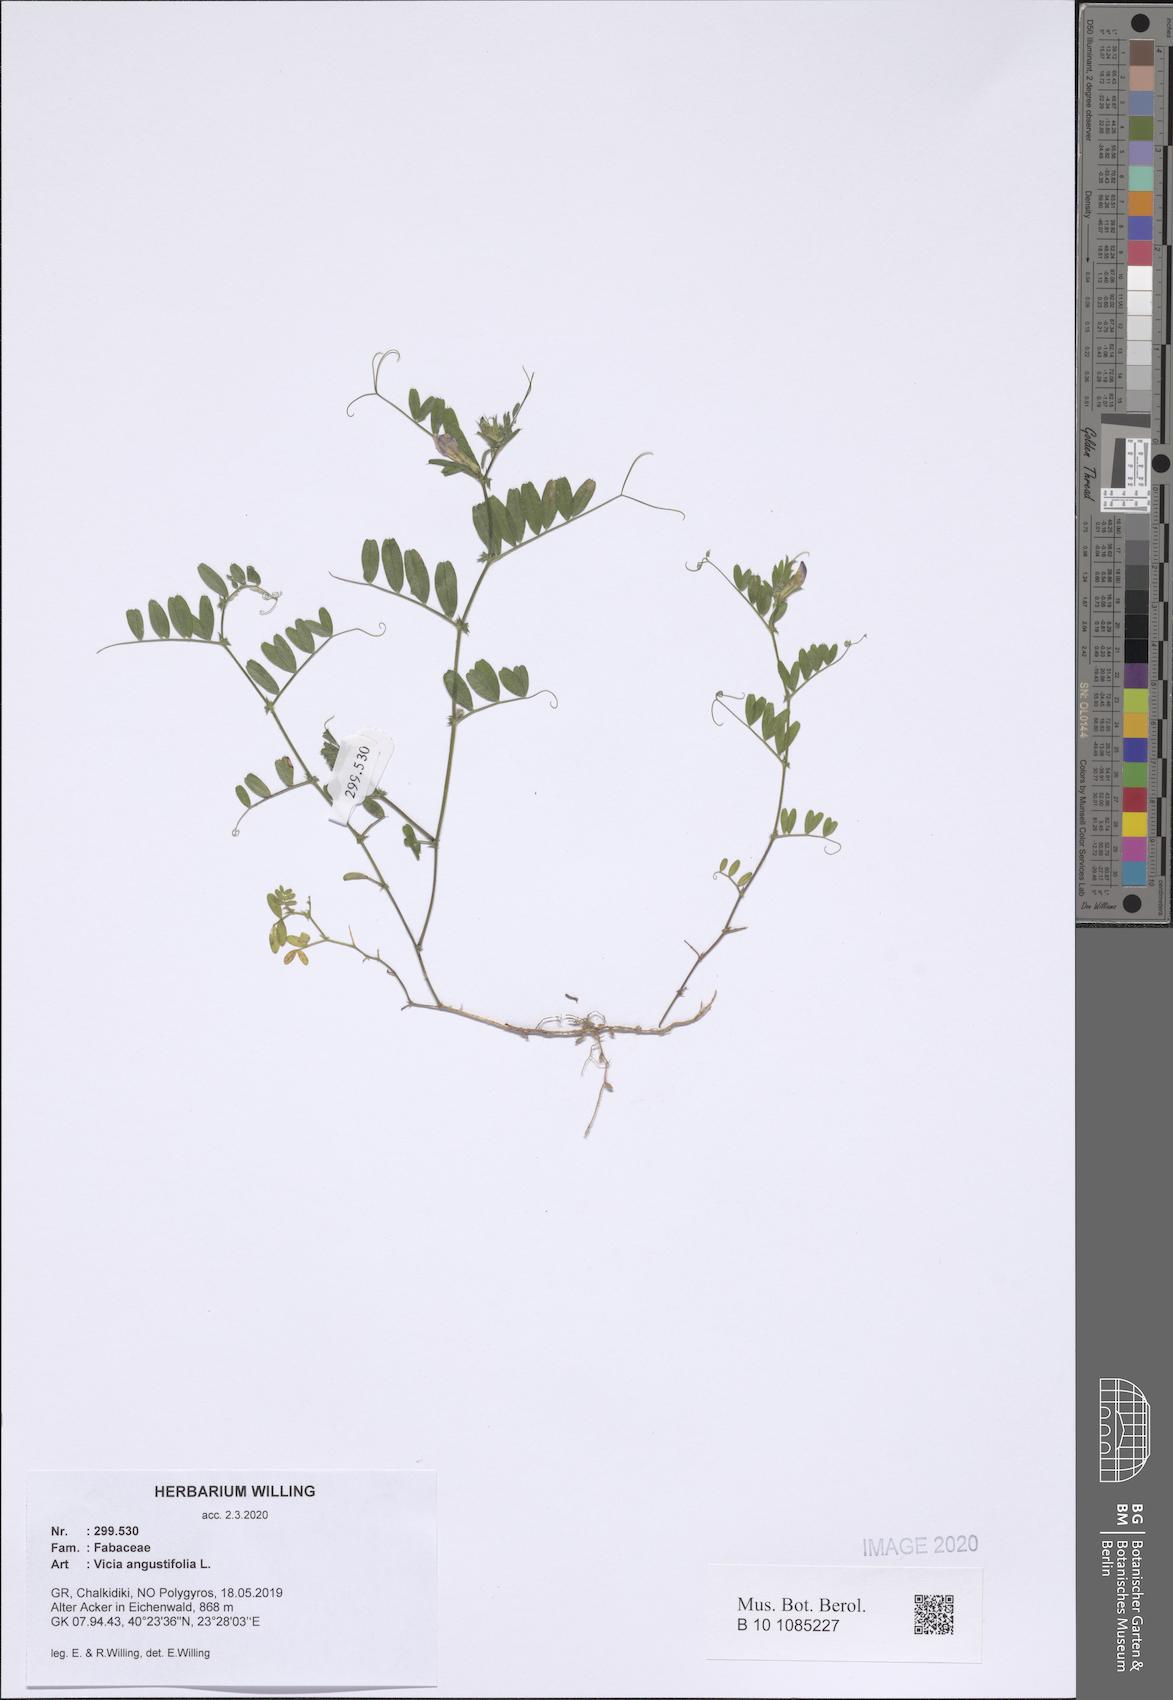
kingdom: Plantae
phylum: Tracheophyta
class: Magnoliopsida
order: Fabales
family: Fabaceae
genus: Vicia
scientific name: Vicia sativa
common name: Garden vetch
